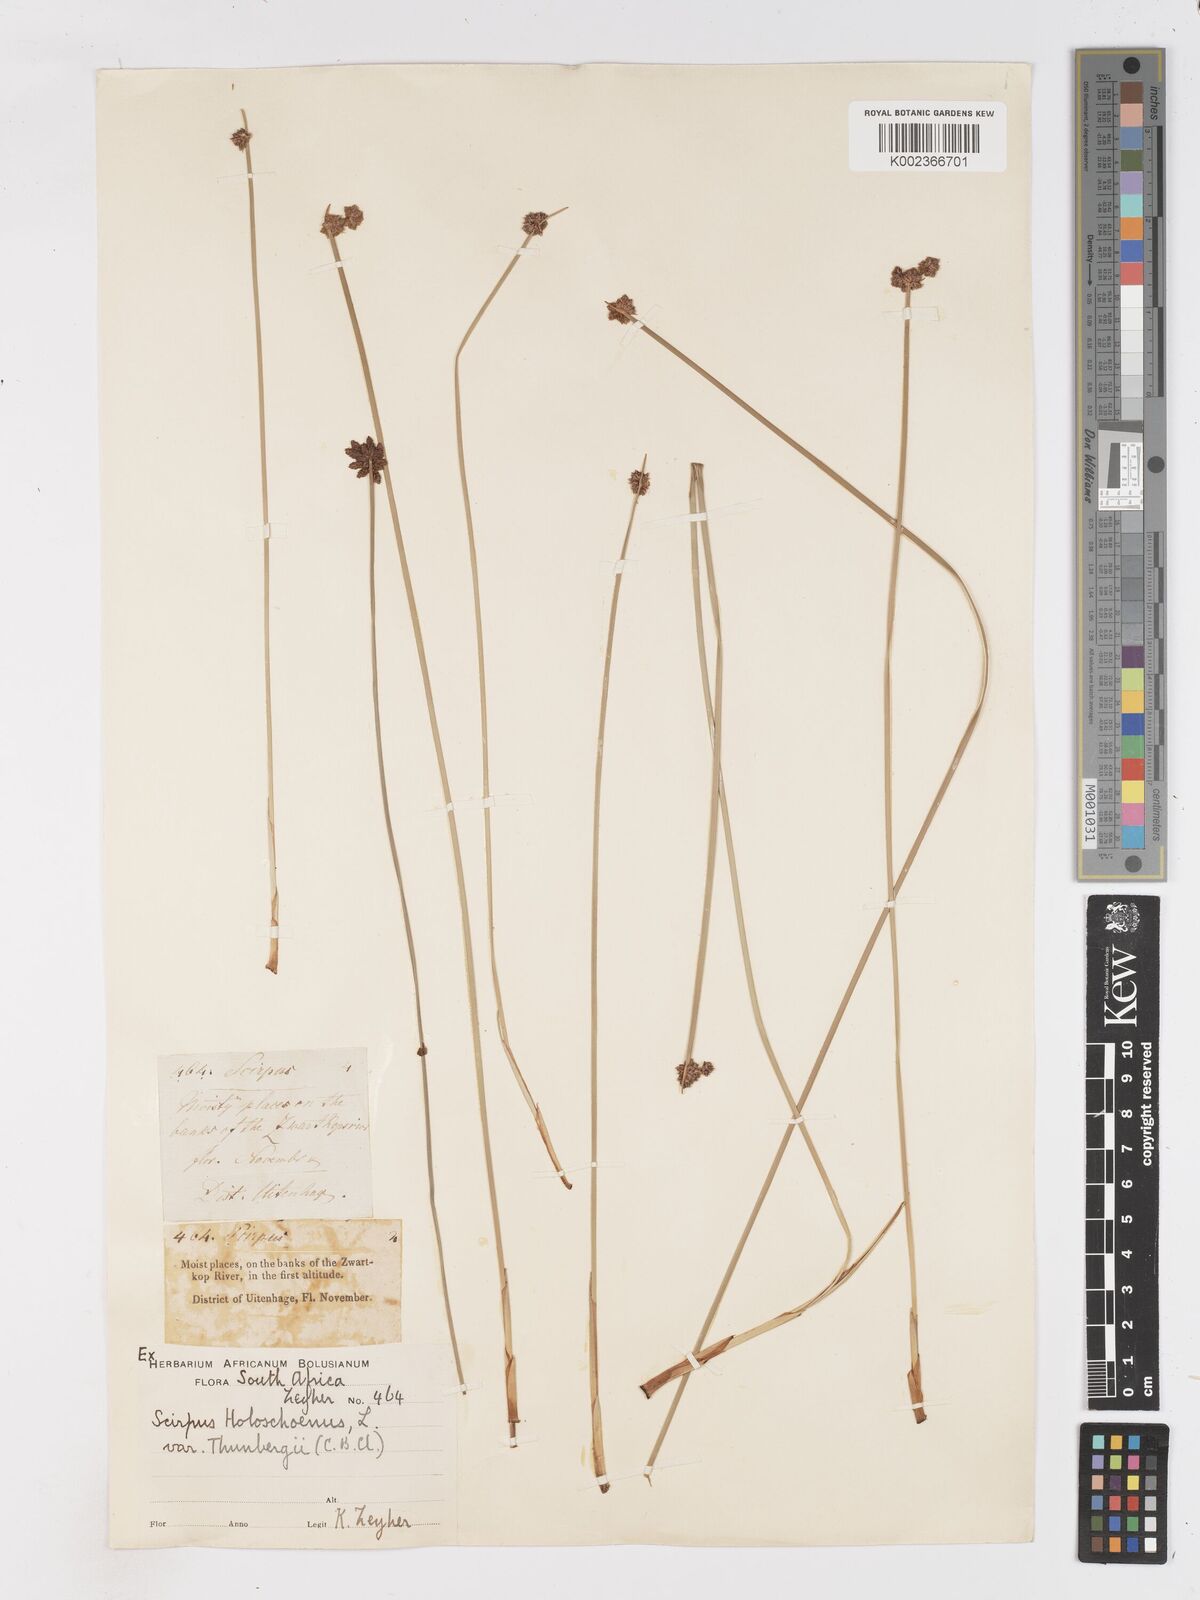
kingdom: Plantae
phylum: Tracheophyta
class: Liliopsida
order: Poales
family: Cyperaceae
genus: Scirpoides
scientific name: Scirpoides holoschoenus
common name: Round-headed club-rush
